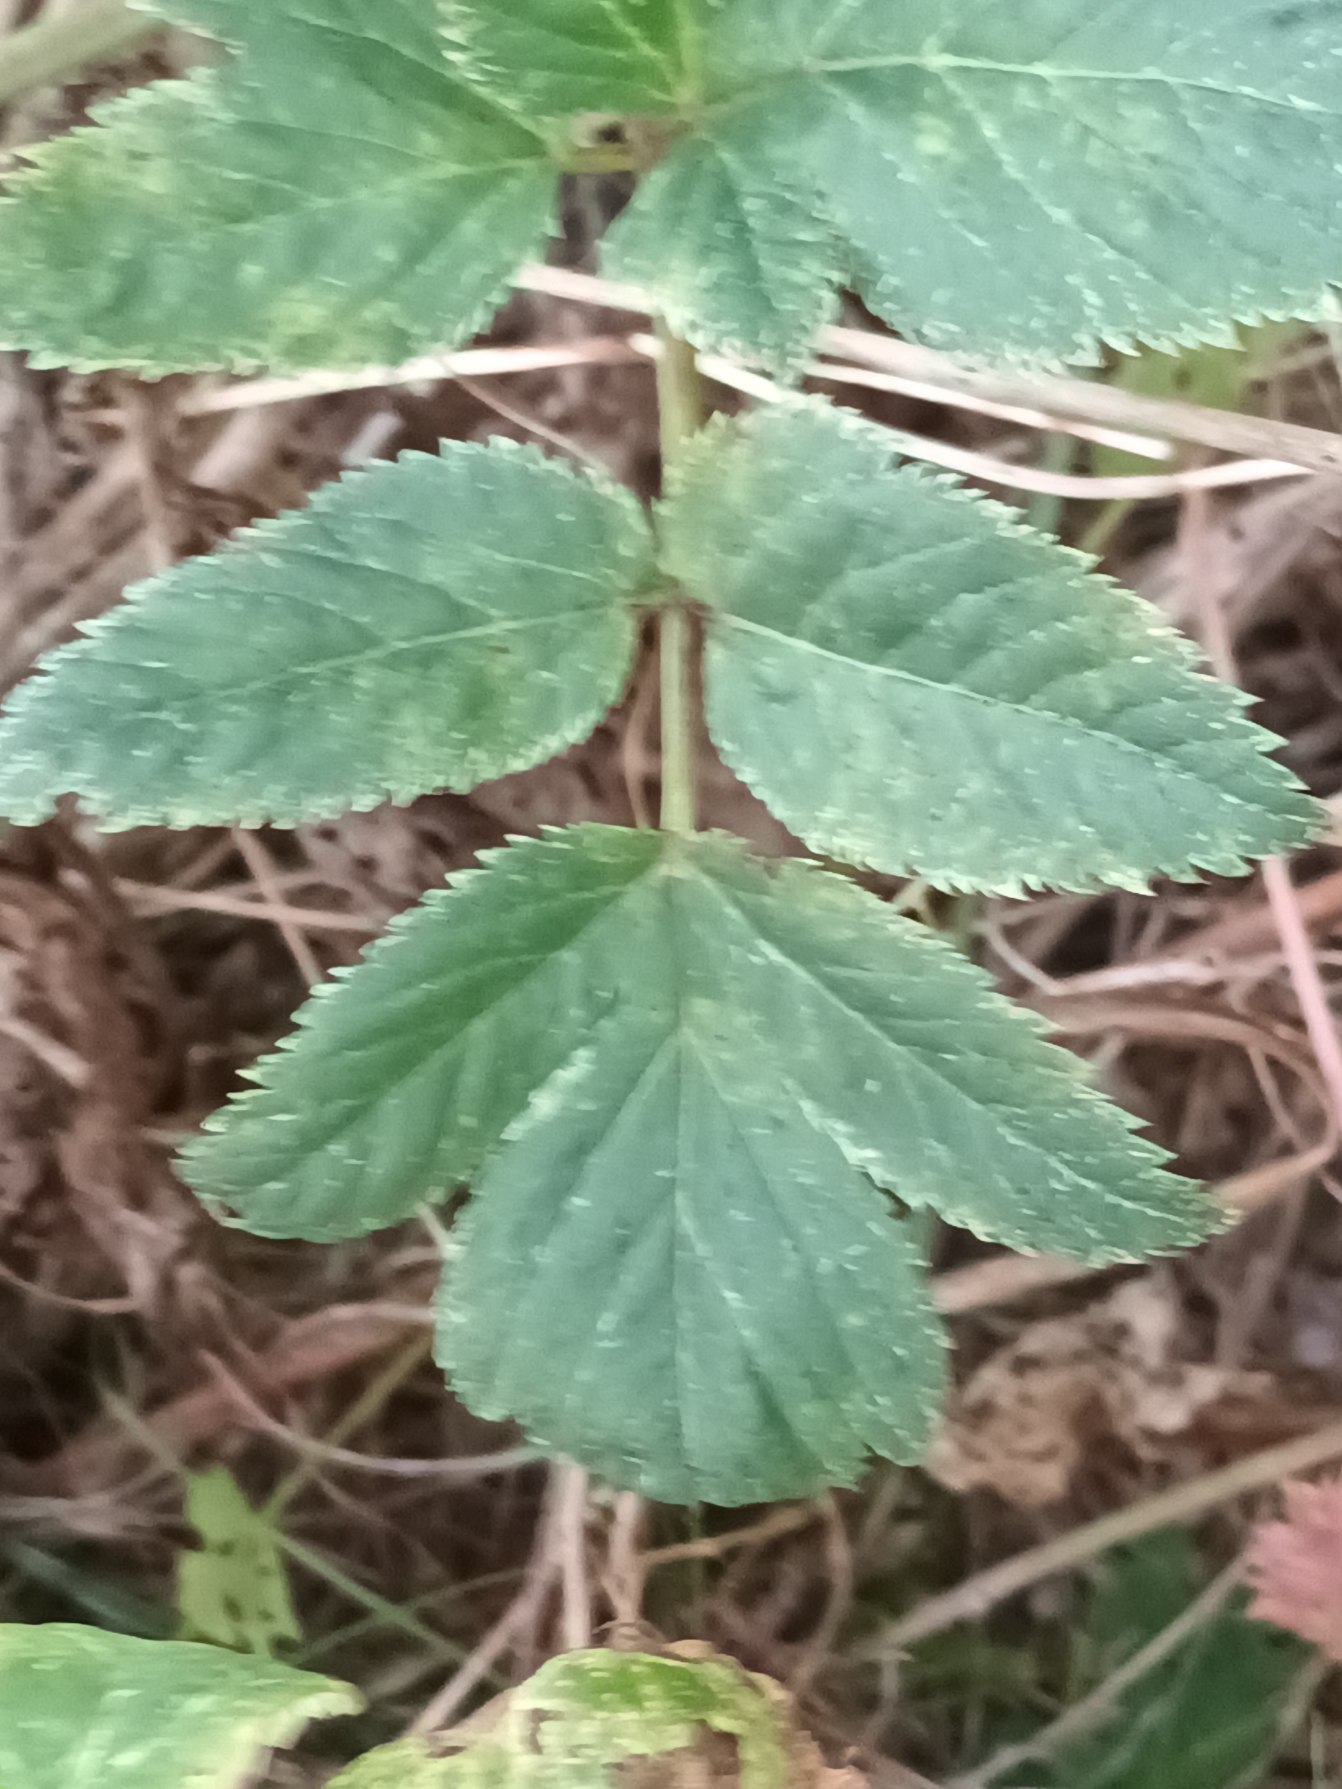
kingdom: Plantae
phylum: Tracheophyta
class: Magnoliopsida
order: Apiales
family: Apiaceae
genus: Angelica
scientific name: Angelica archangelica
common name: Strand-kvan
